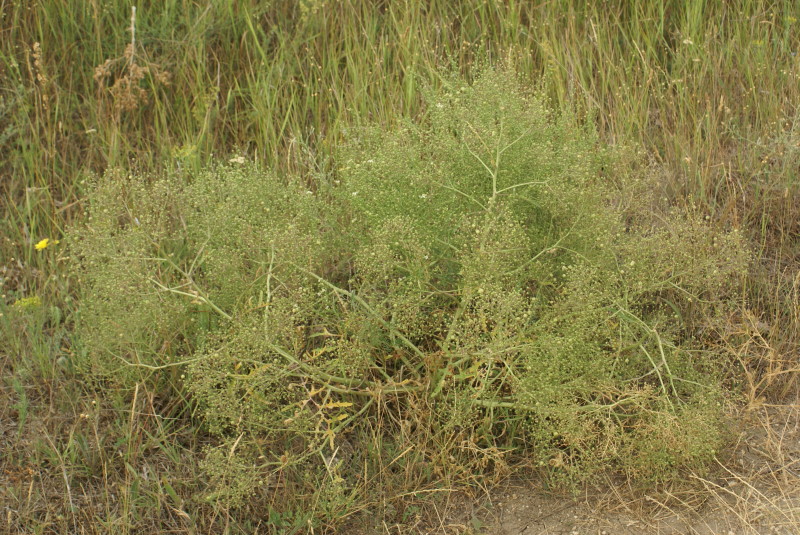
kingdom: Plantae
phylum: Tracheophyta
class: Magnoliopsida
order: Brassicales
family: Brassicaceae
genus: Crambe
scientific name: Crambe maritima
